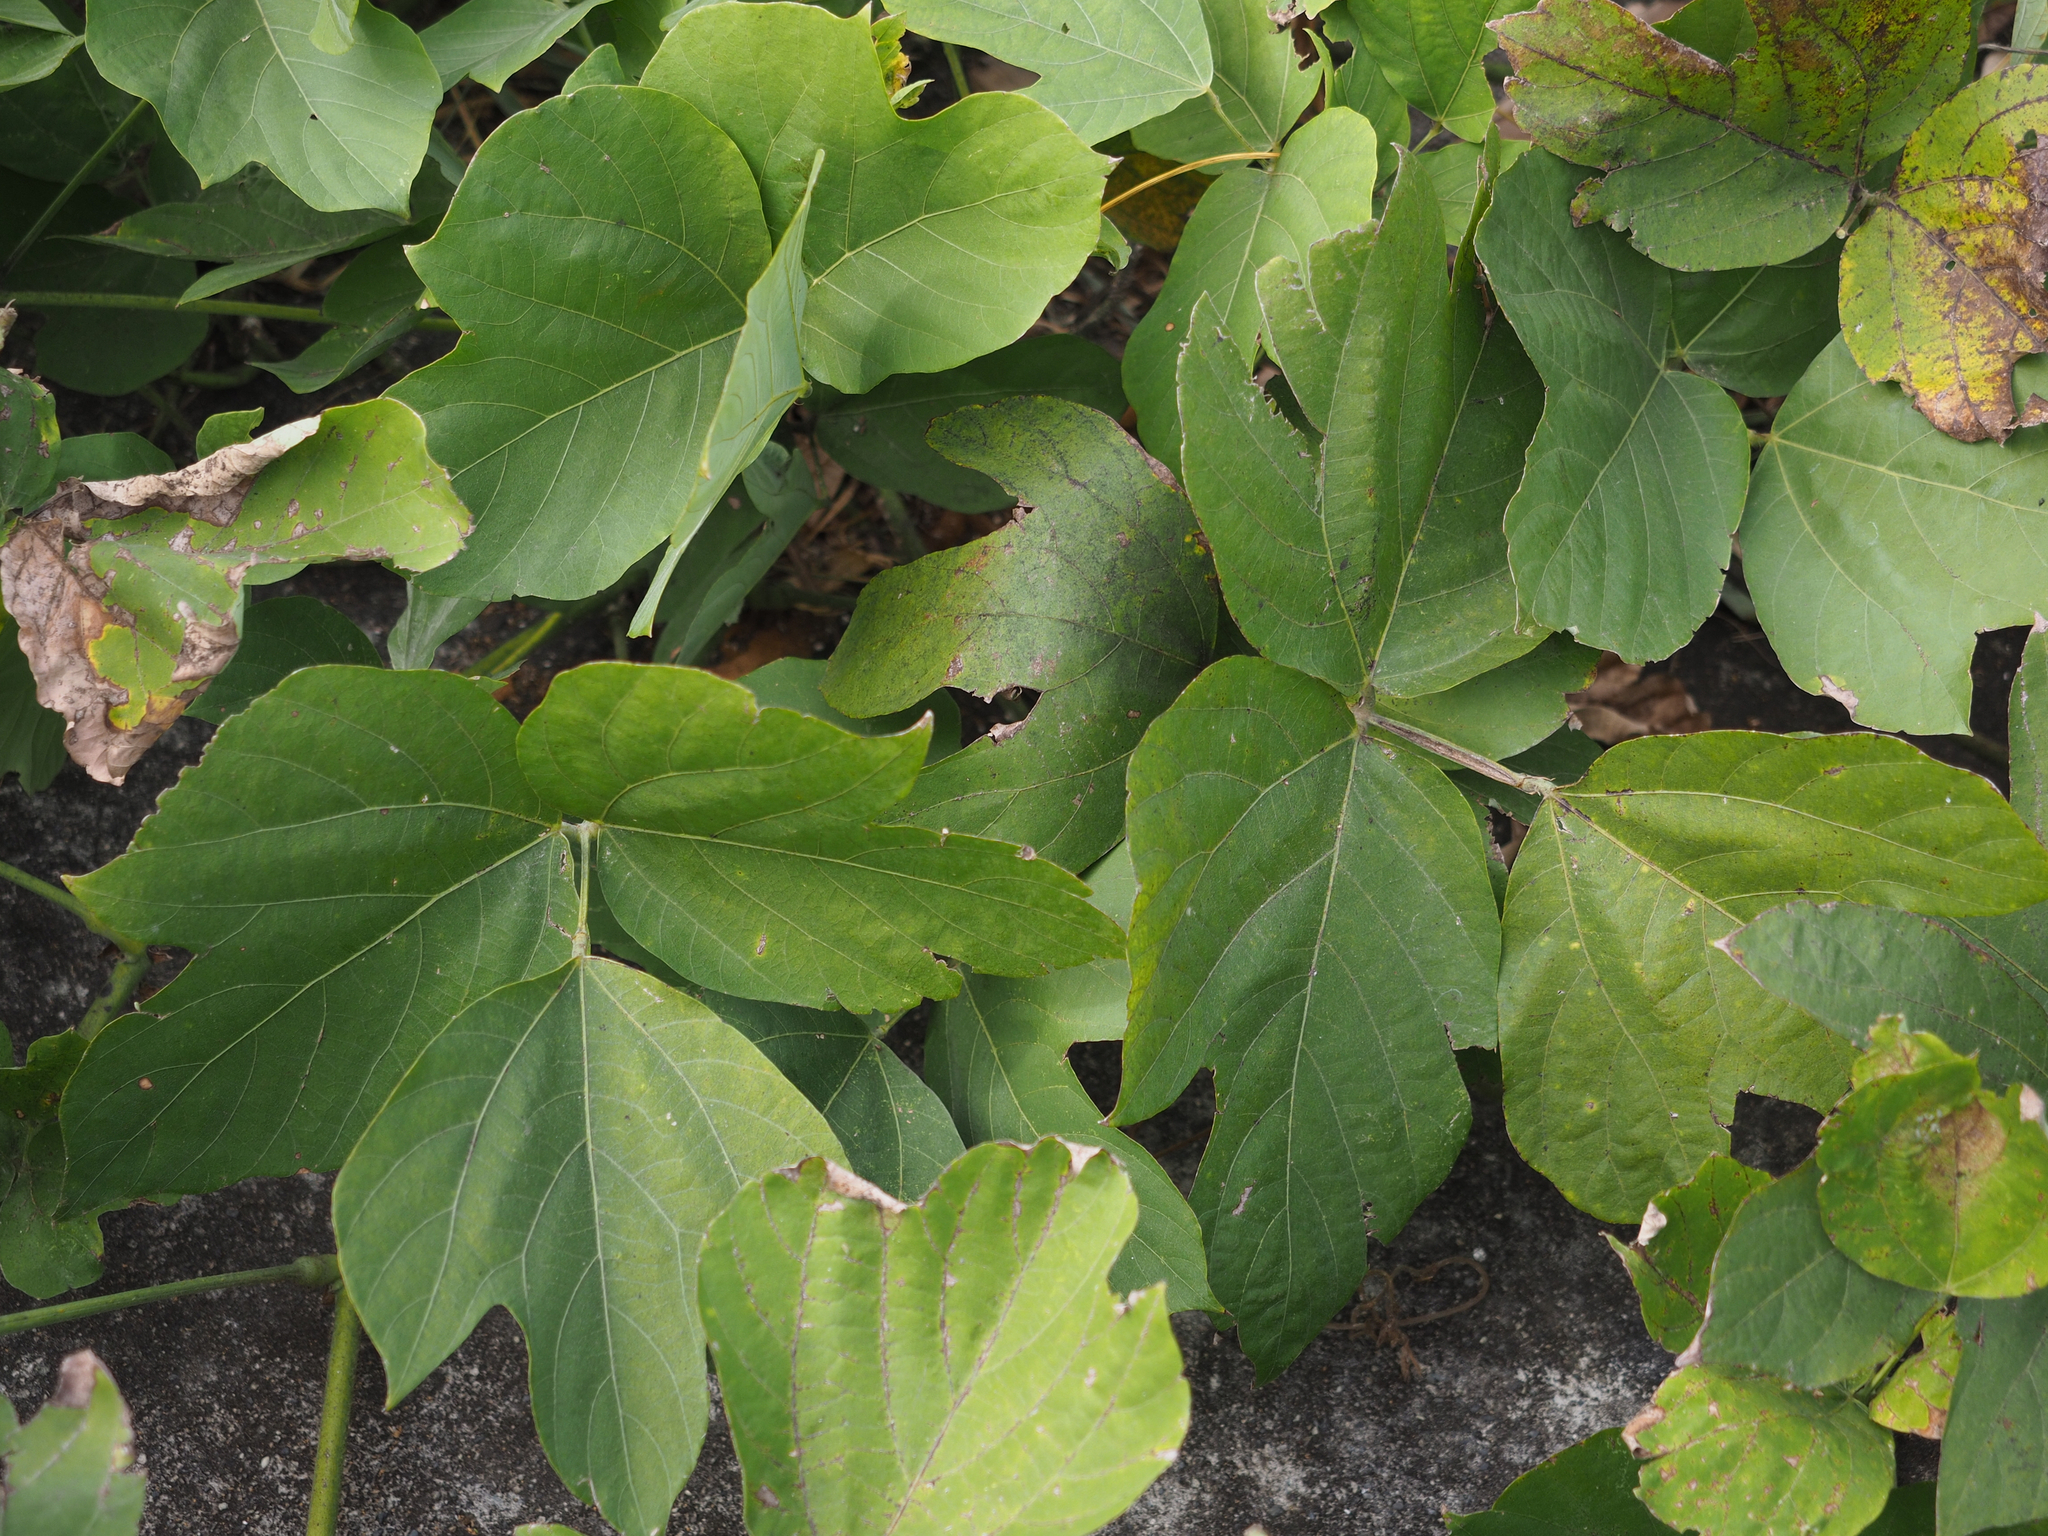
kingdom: Plantae
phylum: Tracheophyta
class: Magnoliopsida
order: Fabales
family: Fabaceae
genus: Pueraria
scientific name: Pueraria montana
